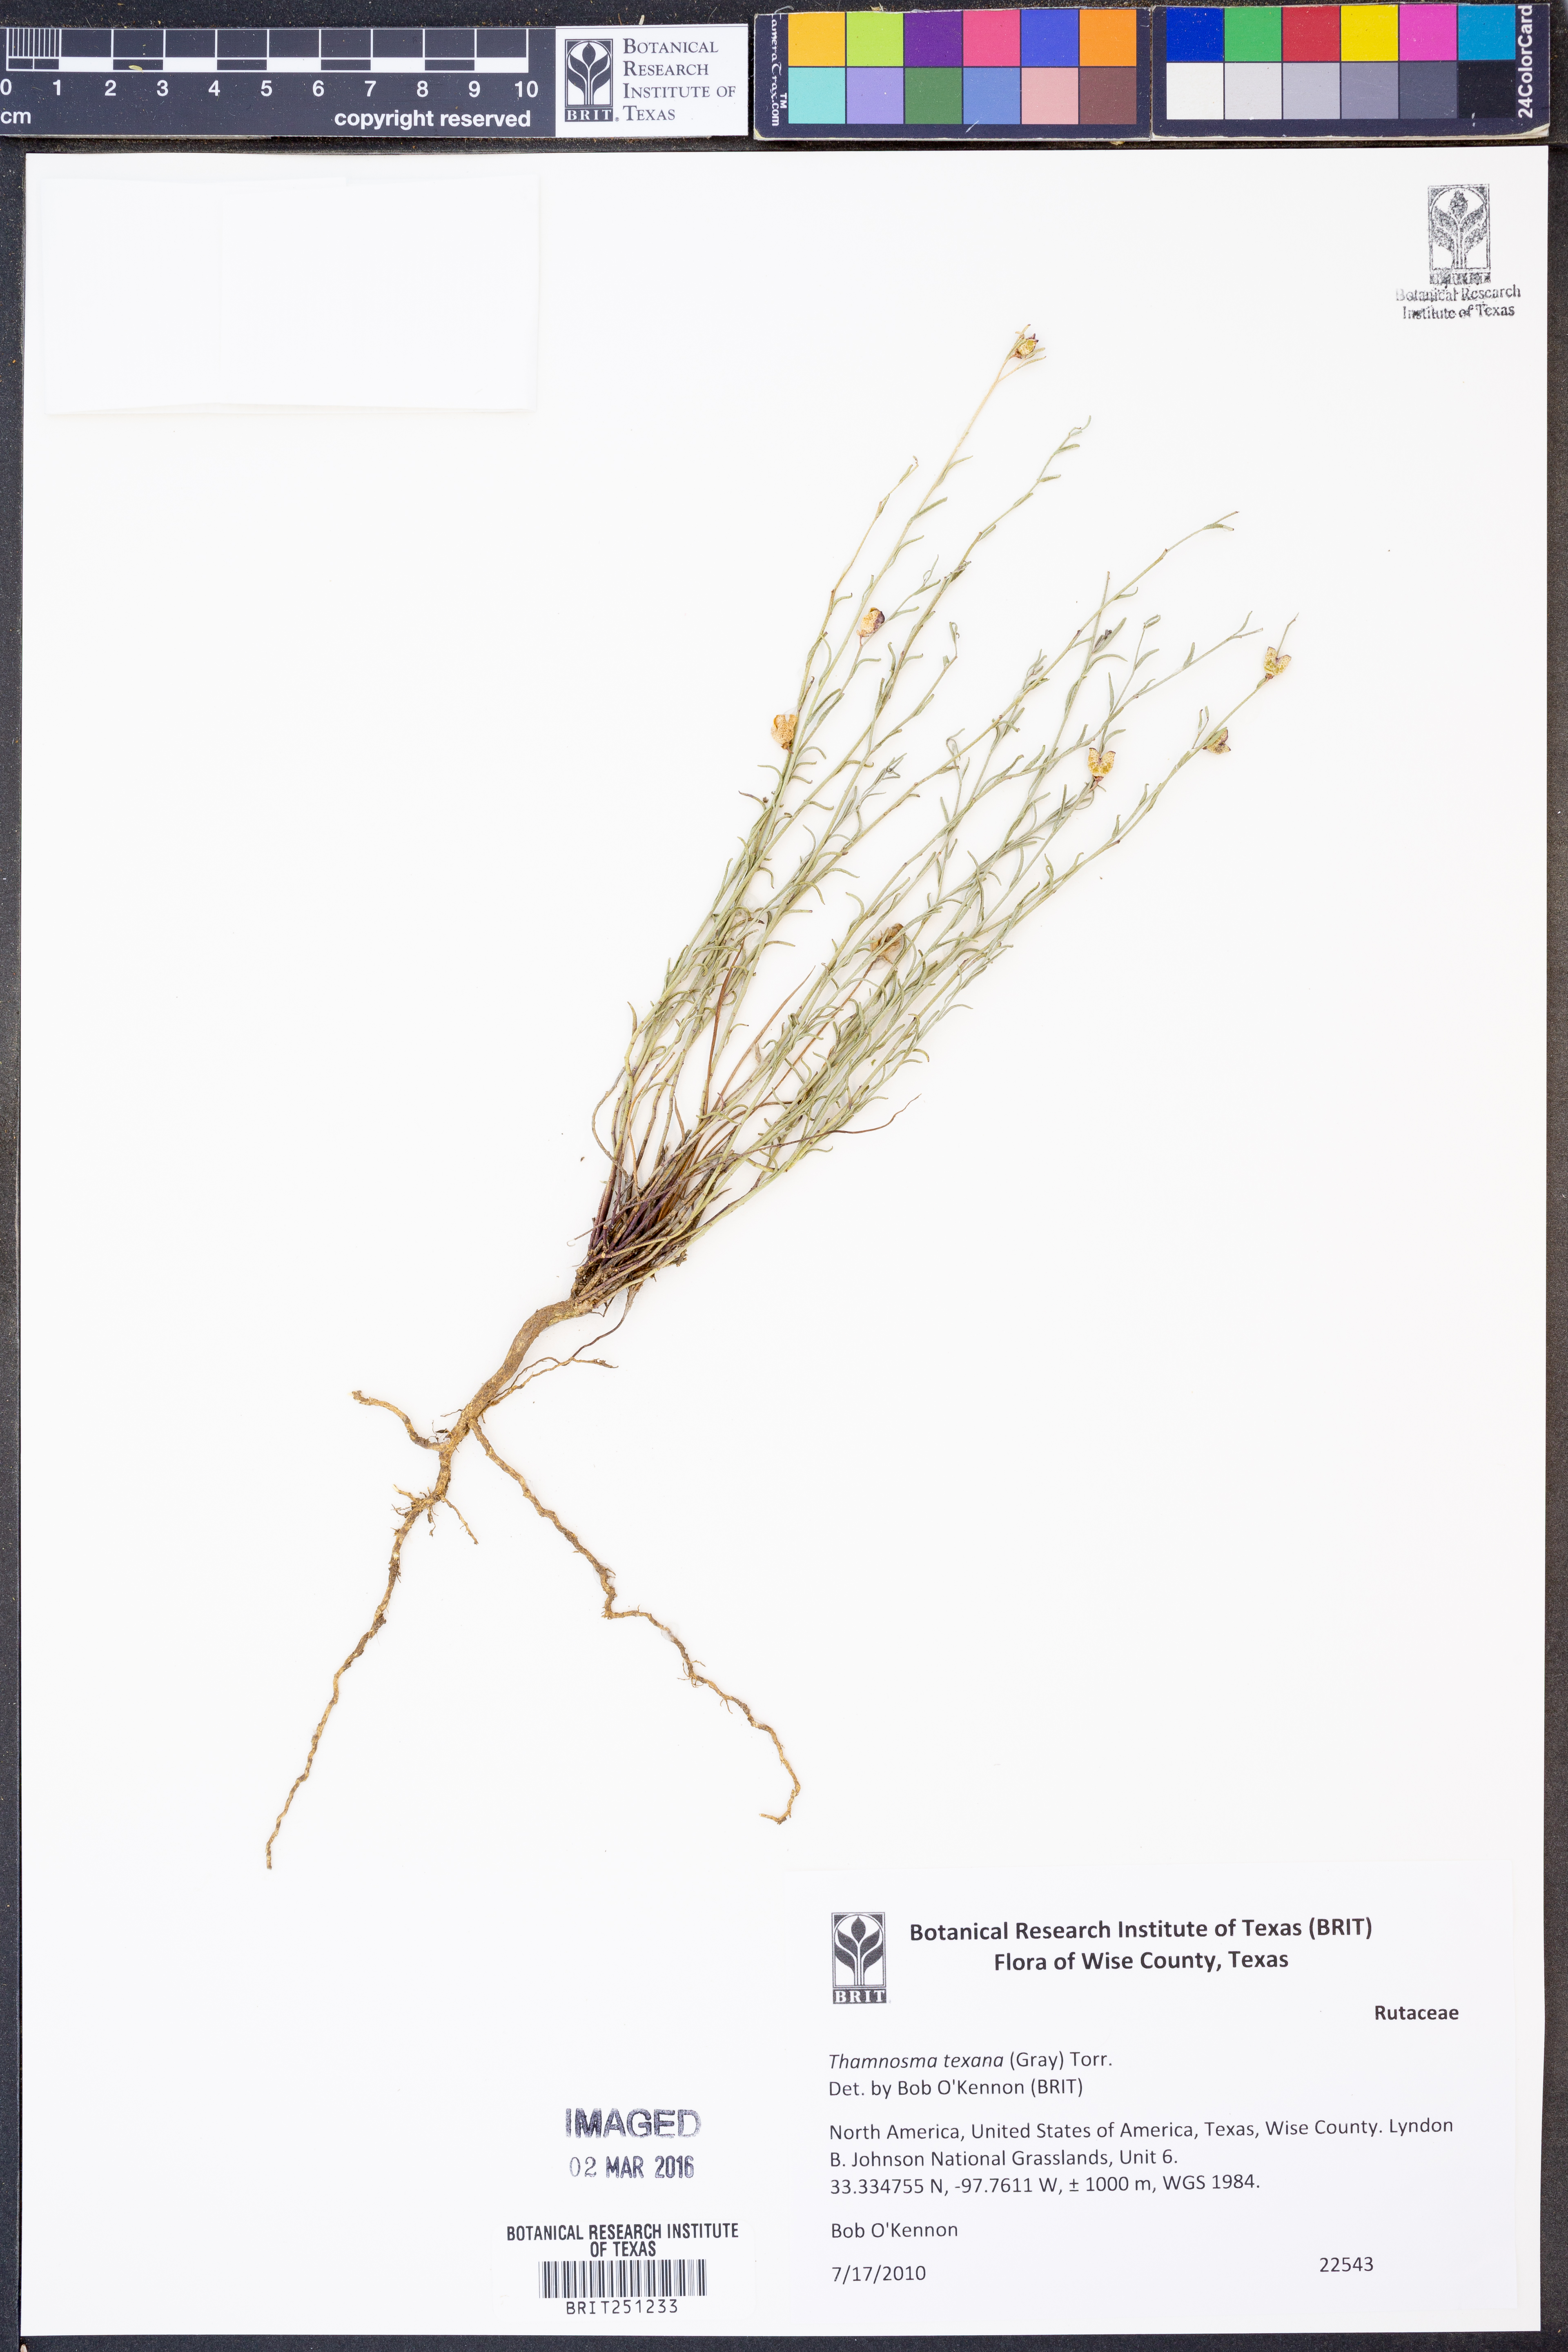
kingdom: Plantae
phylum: Tracheophyta
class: Magnoliopsida
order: Sapindales
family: Rutaceae
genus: Thamnosma
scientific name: Thamnosma texana
